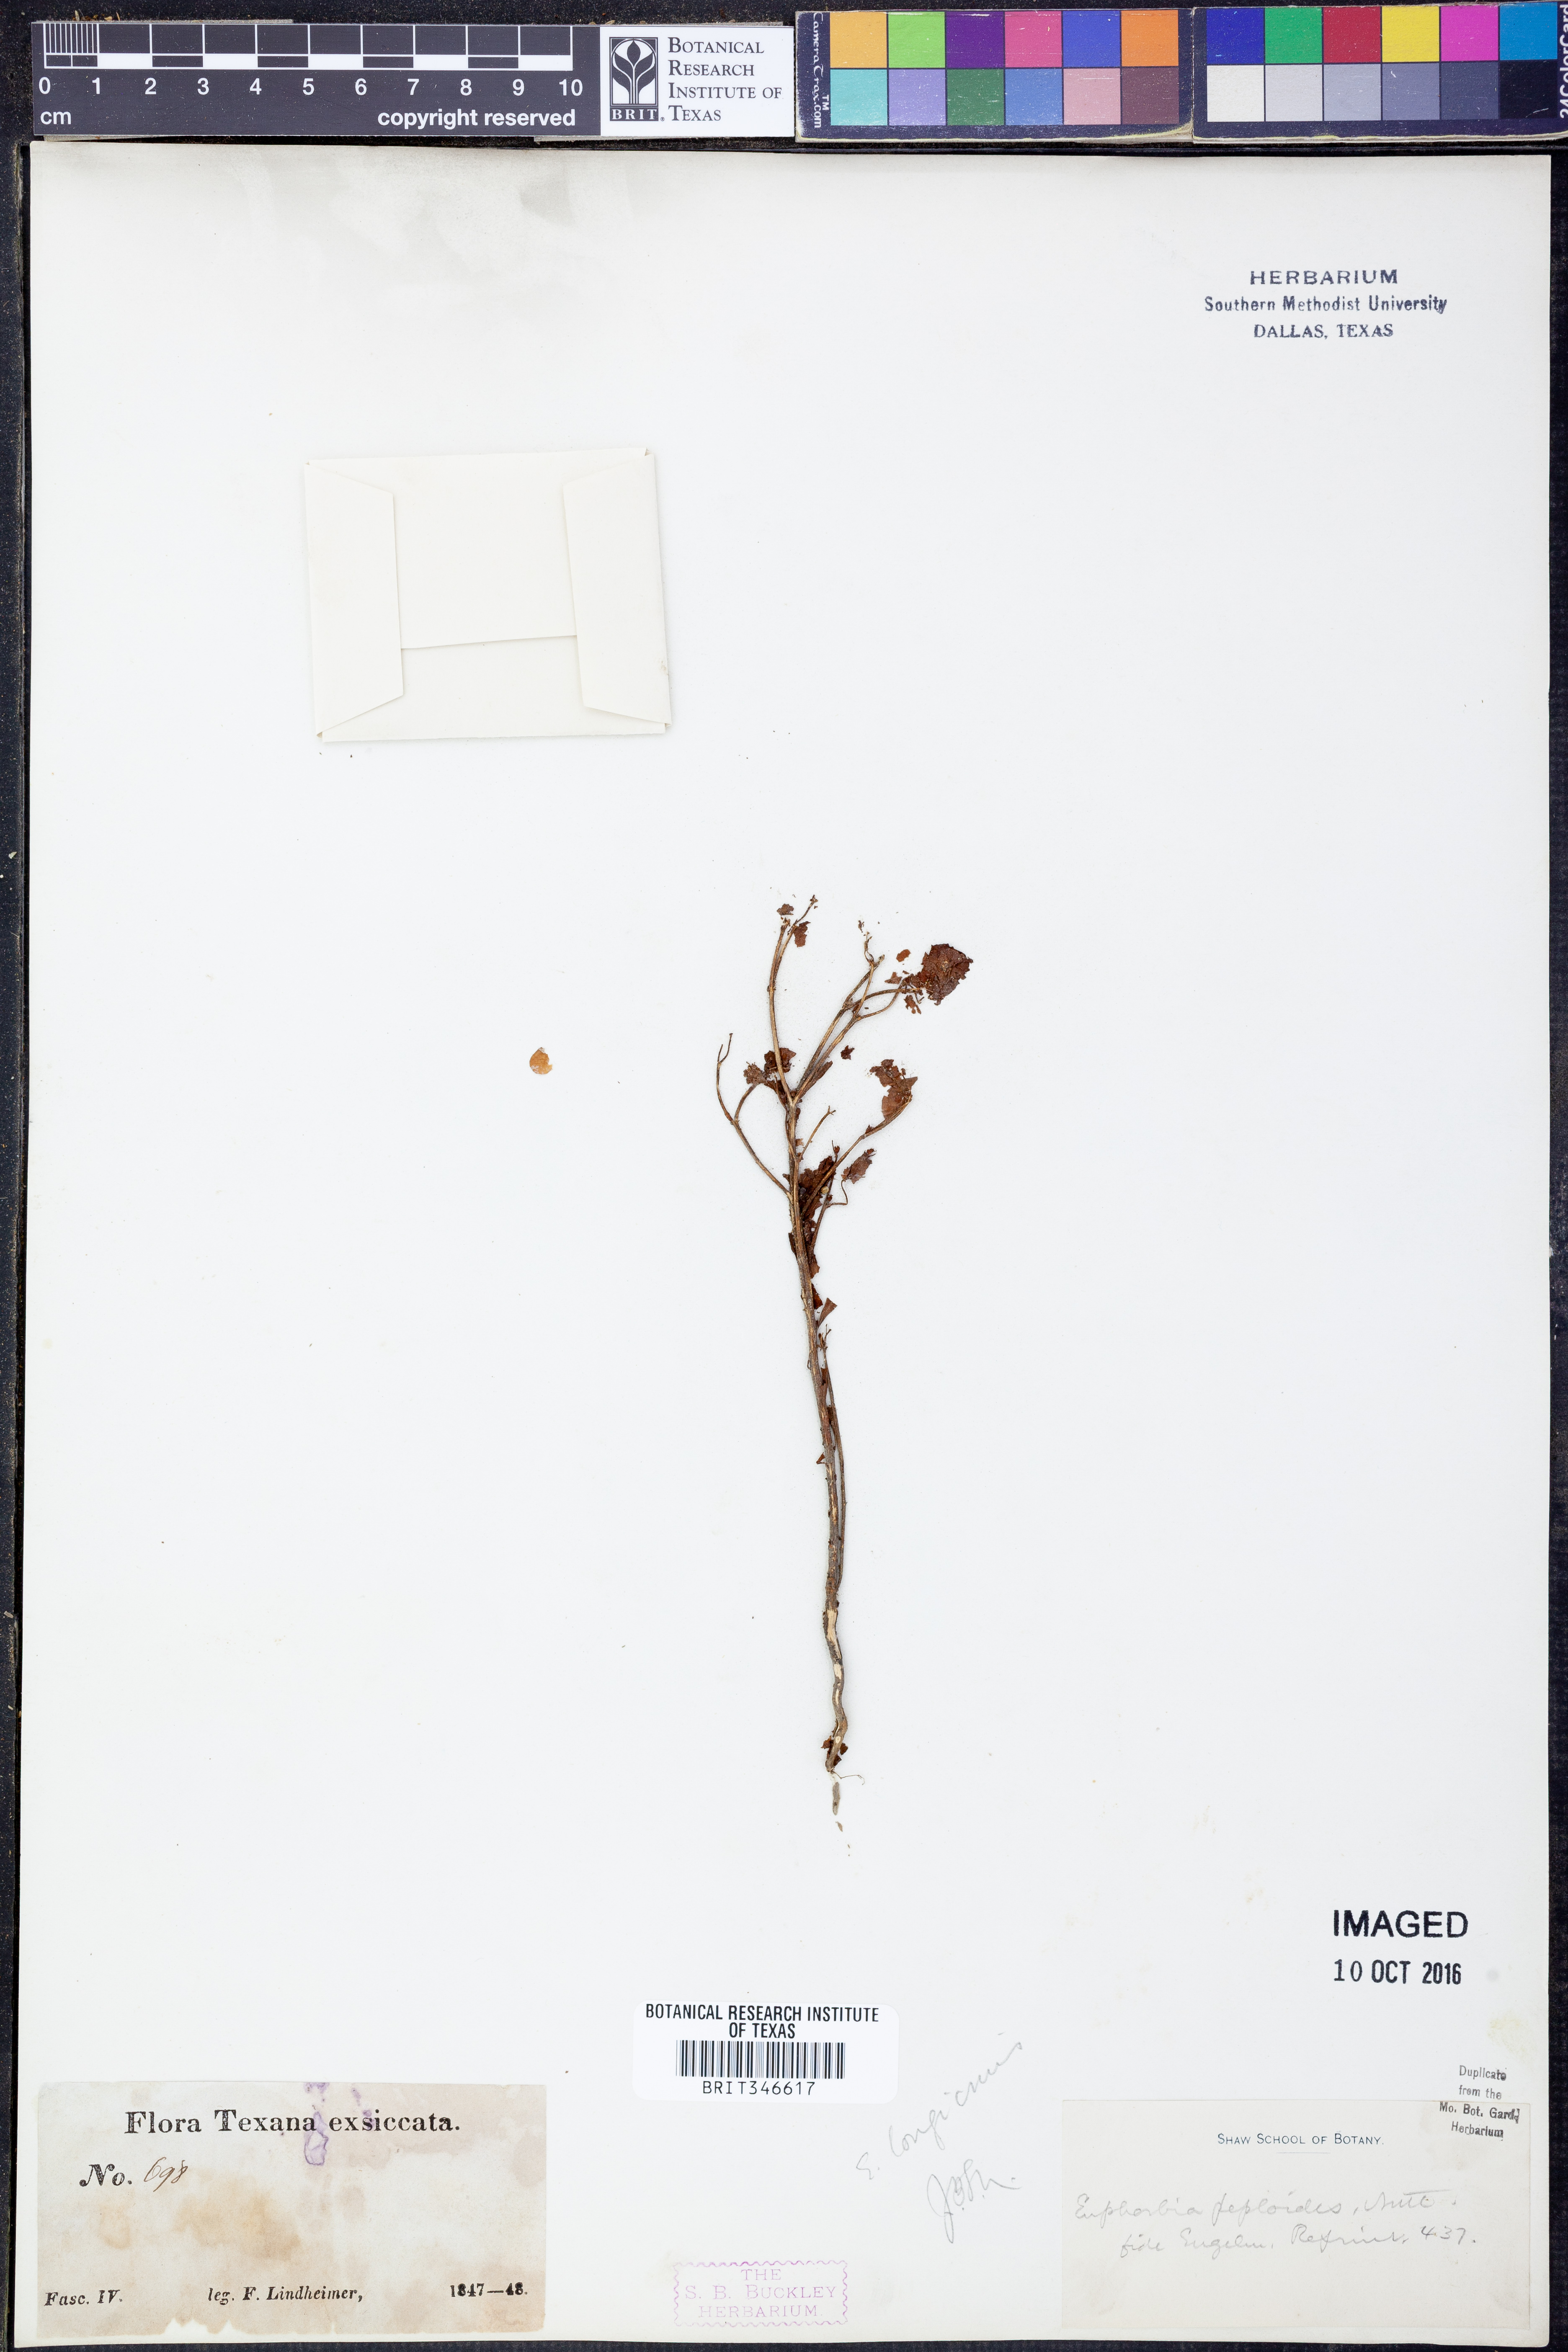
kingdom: Plantae
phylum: Tracheophyta
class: Magnoliopsida
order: Malpighiales
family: Euphorbiaceae
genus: Euphorbia
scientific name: Euphorbia longicruris
